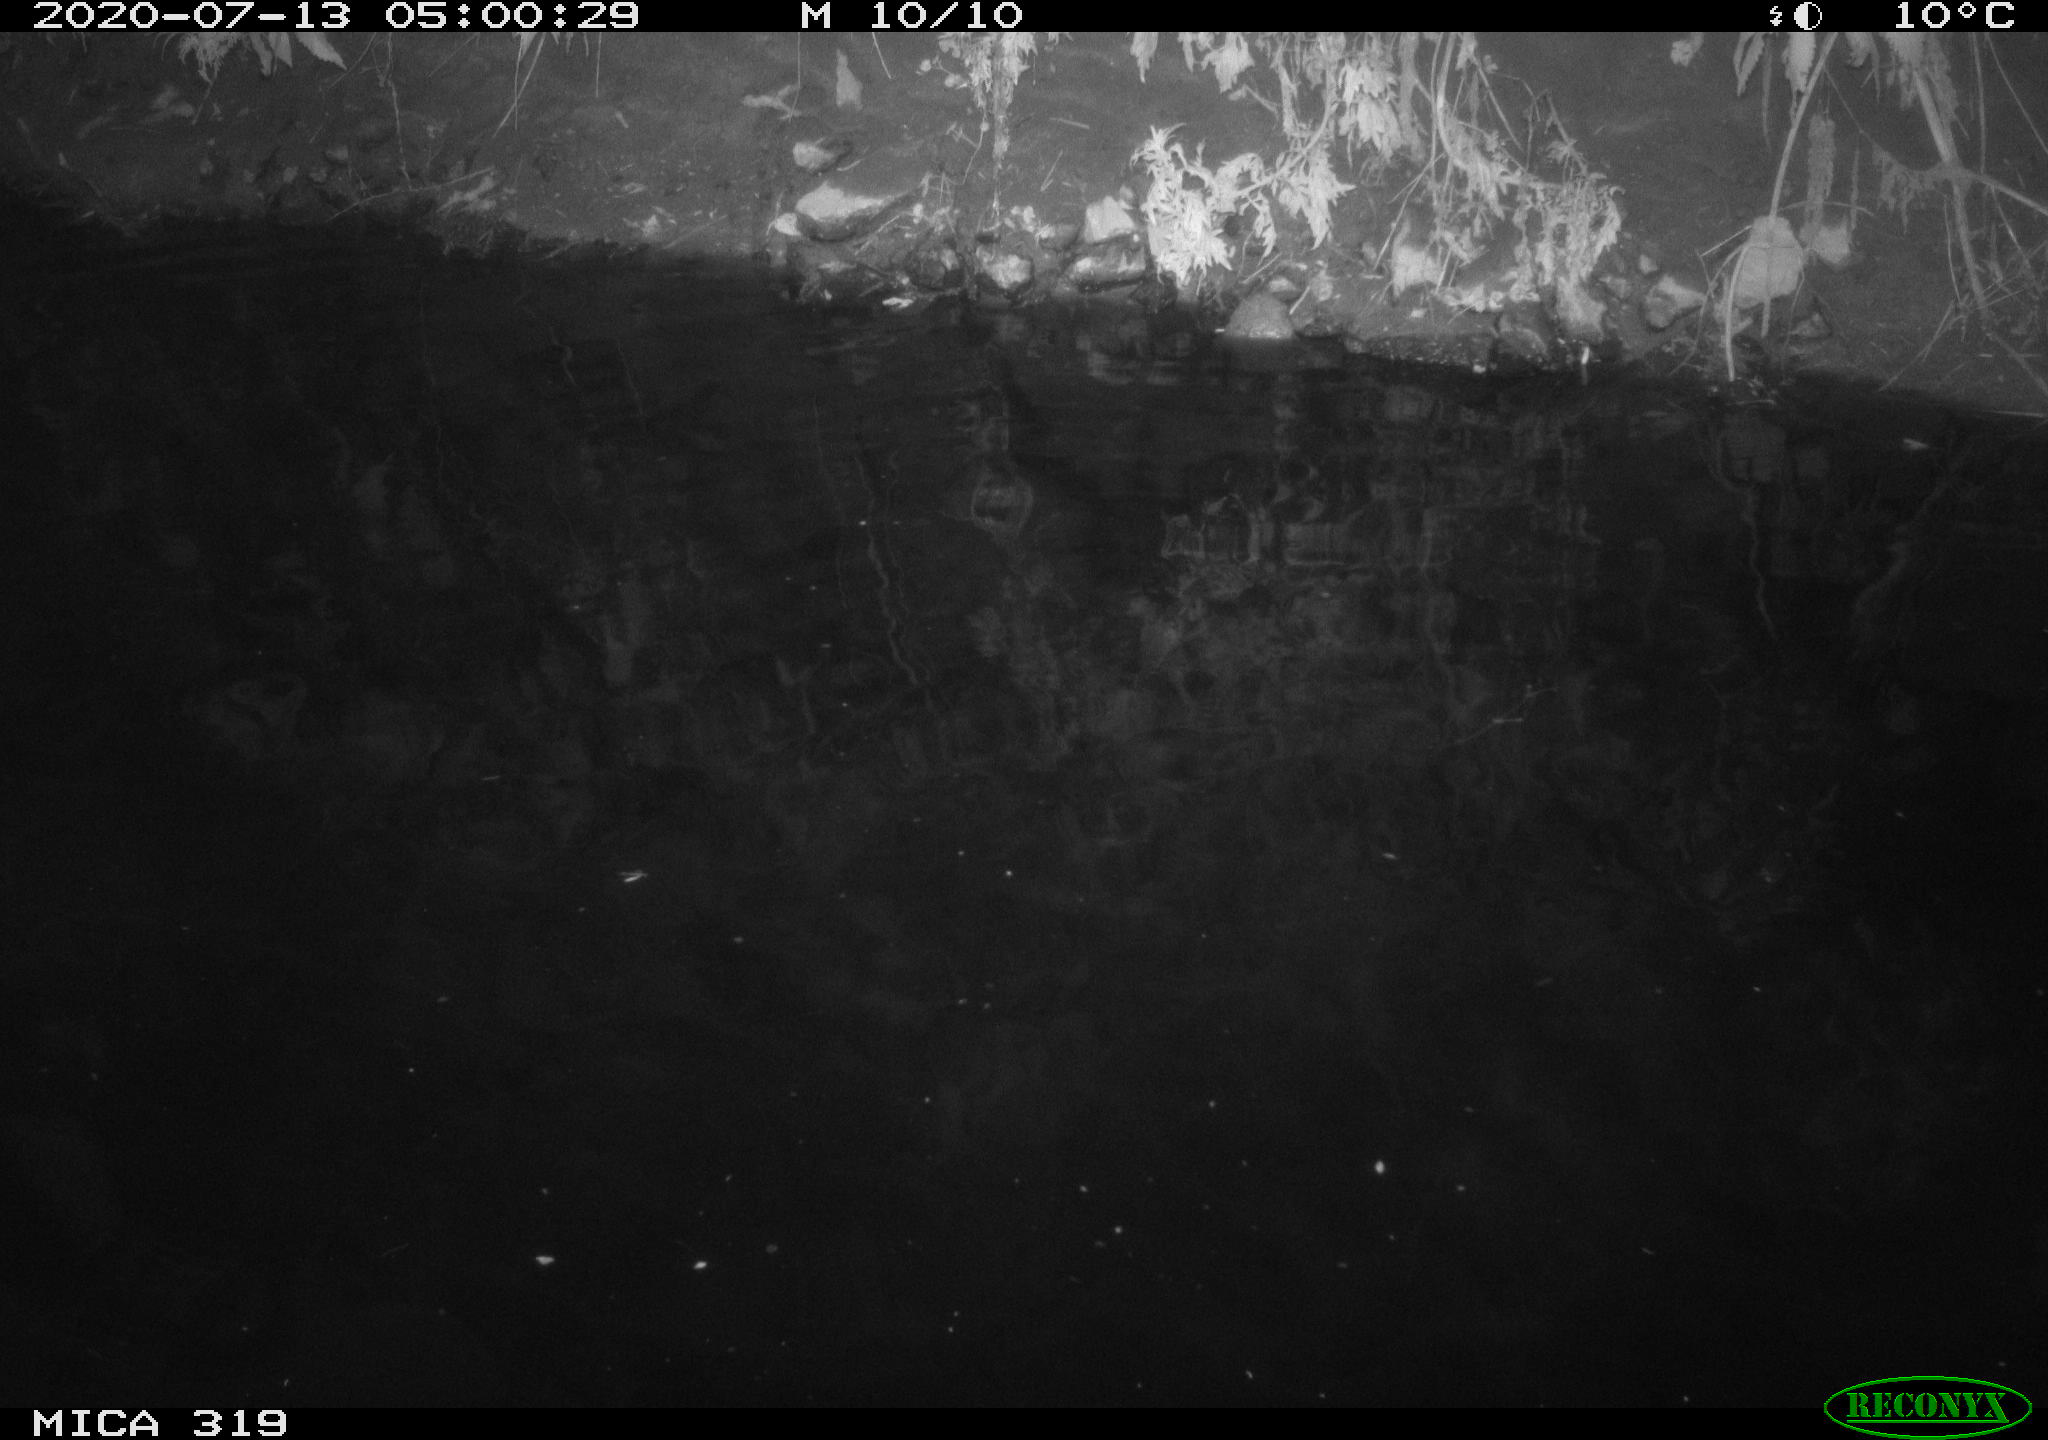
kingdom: Animalia
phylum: Chordata
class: Aves
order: Anseriformes
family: Anatidae
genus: Anas
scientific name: Anas platyrhynchos
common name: Mallard
